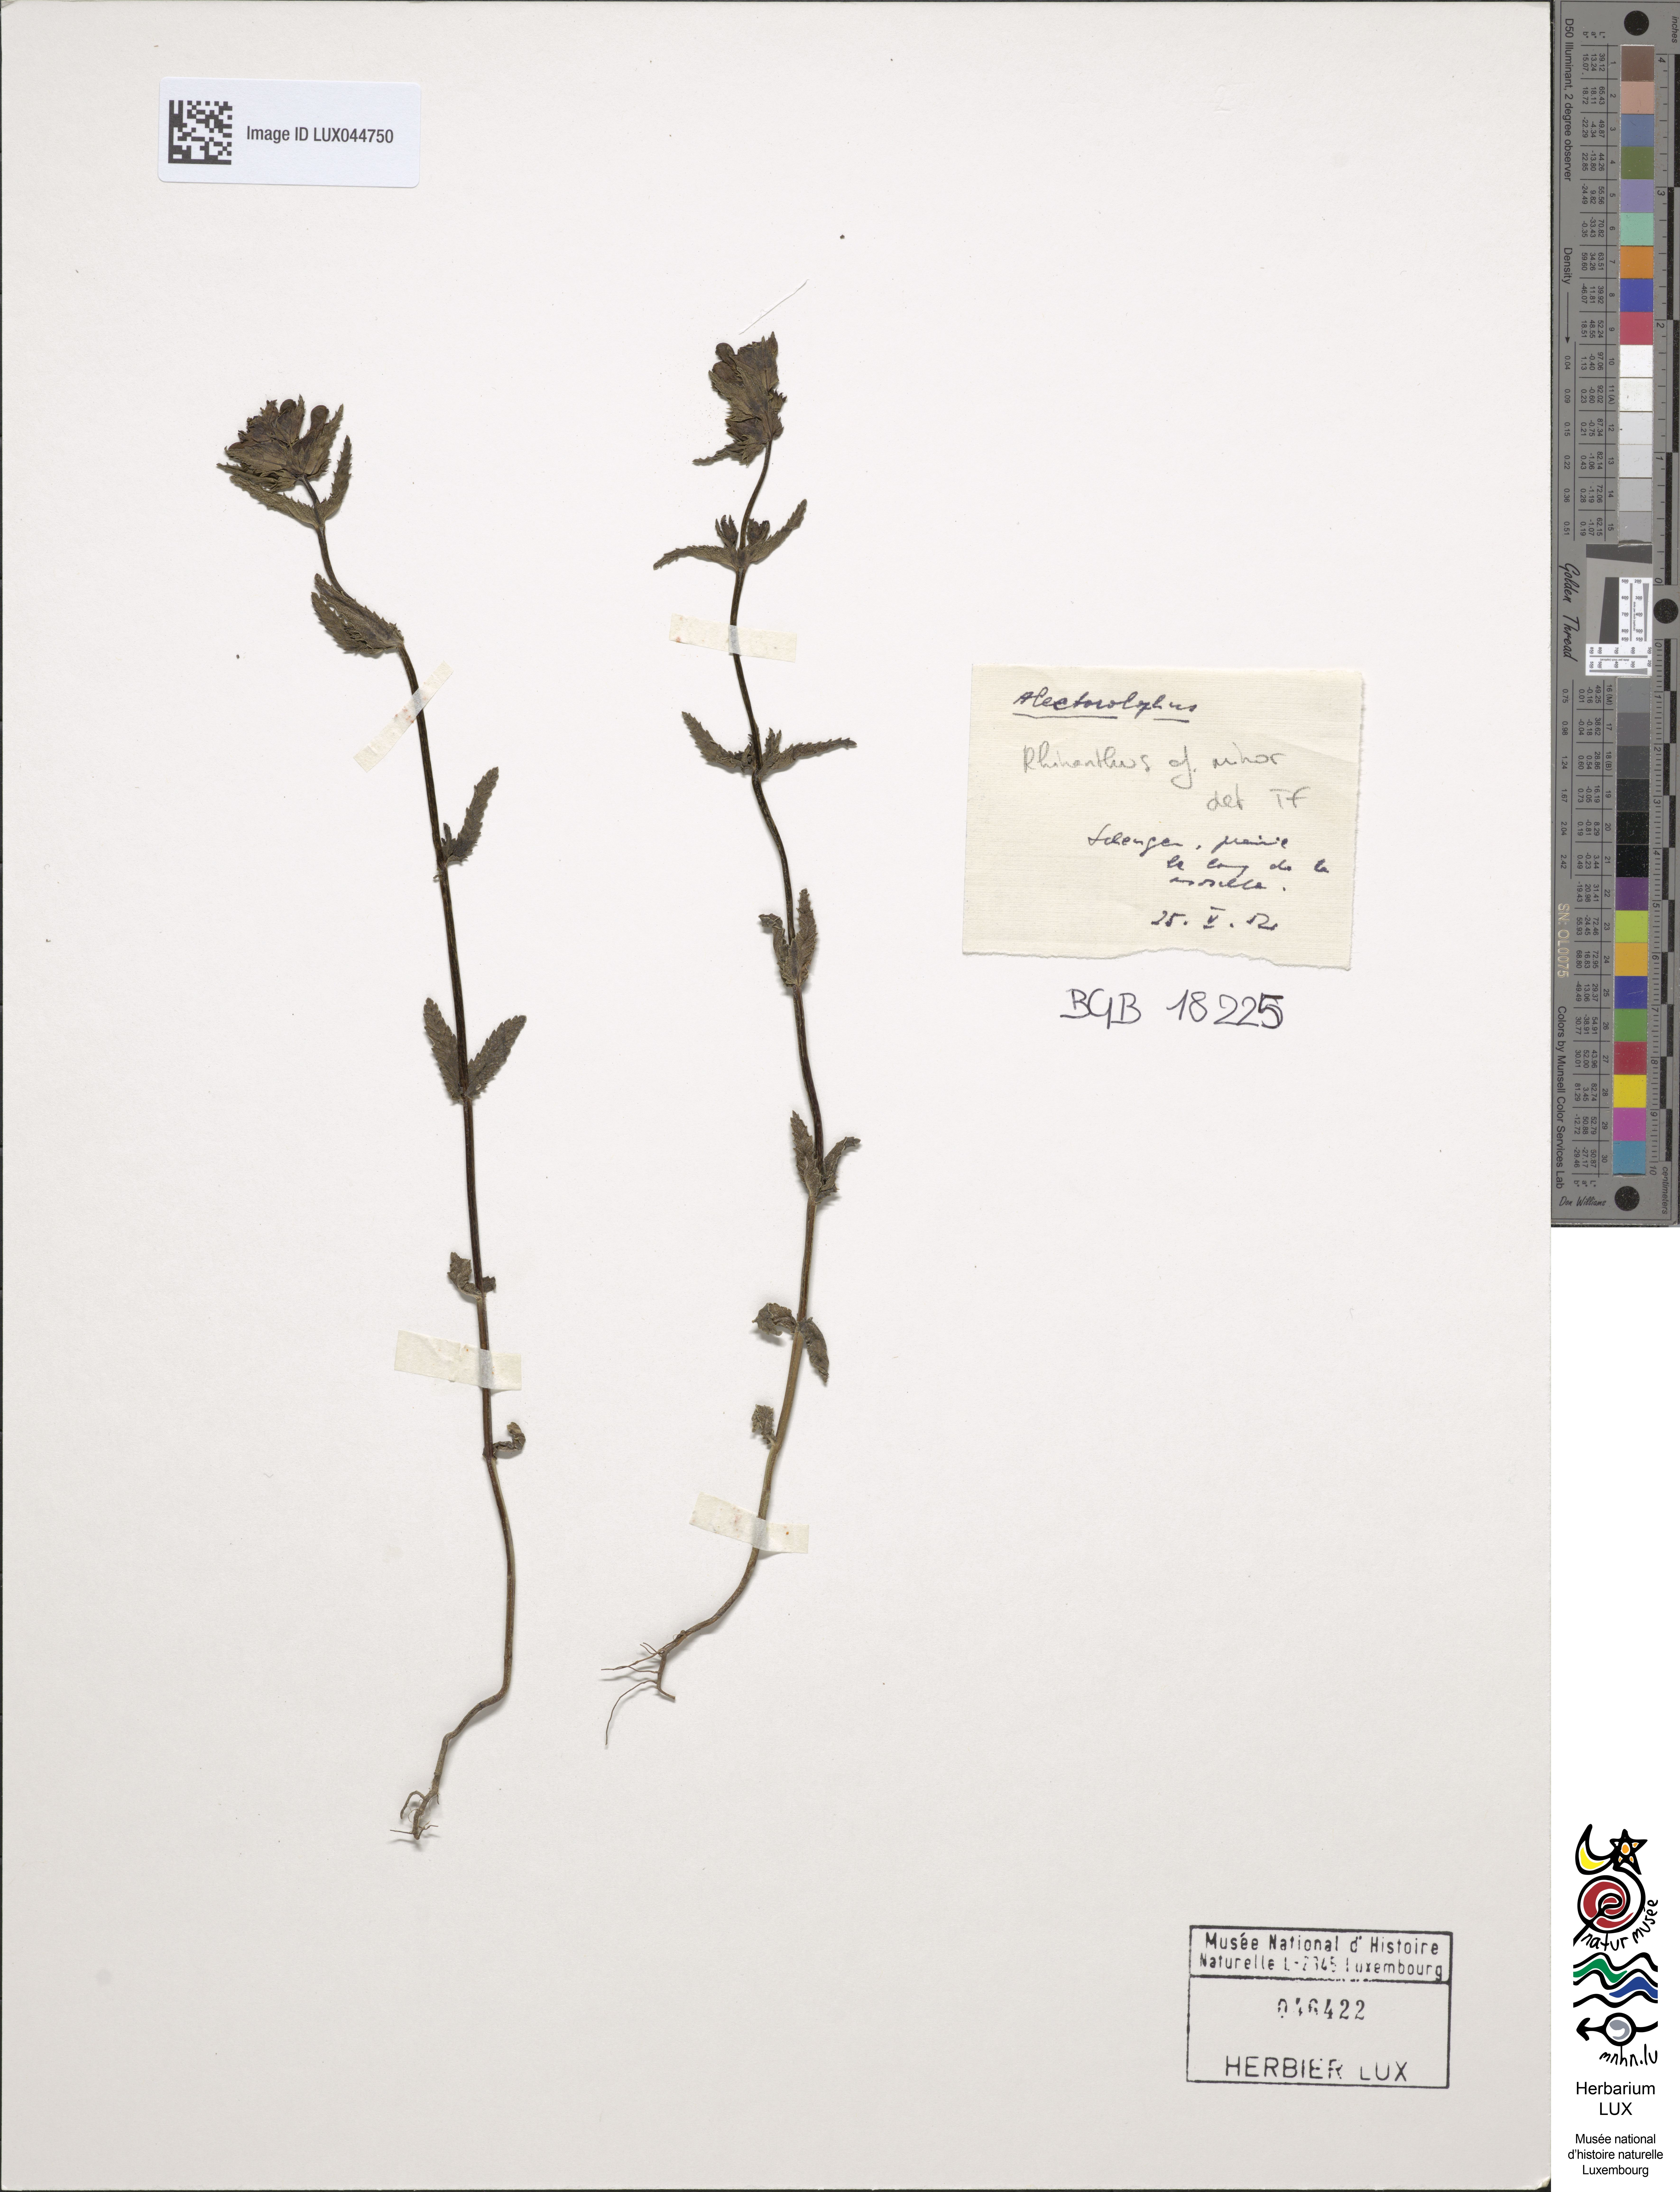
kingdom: Plantae
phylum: Tracheophyta
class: Magnoliopsida
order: Lamiales
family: Orobanchaceae
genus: Rhinanthus
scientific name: Rhinanthus minor
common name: Yellow-rattle
